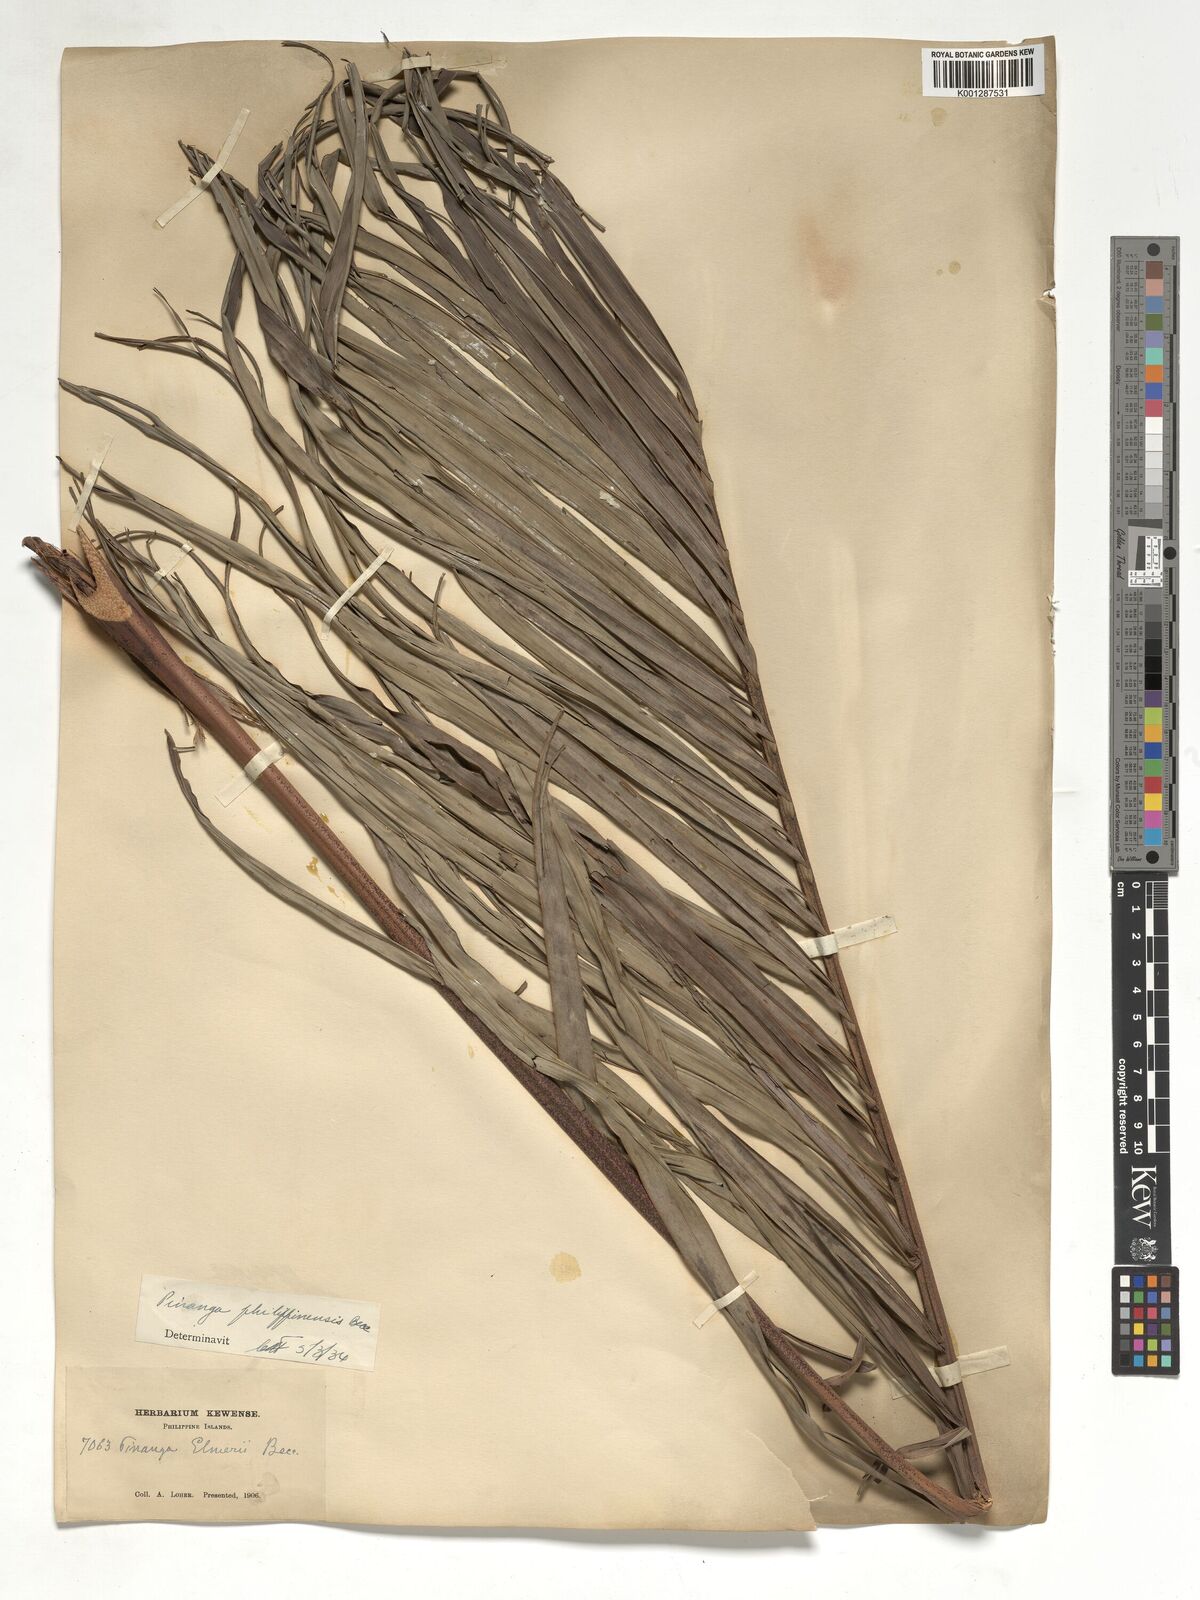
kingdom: Plantae
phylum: Tracheophyta
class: Liliopsida
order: Arecales
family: Arecaceae
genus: Pinanga
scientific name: Pinanga philippinensis
